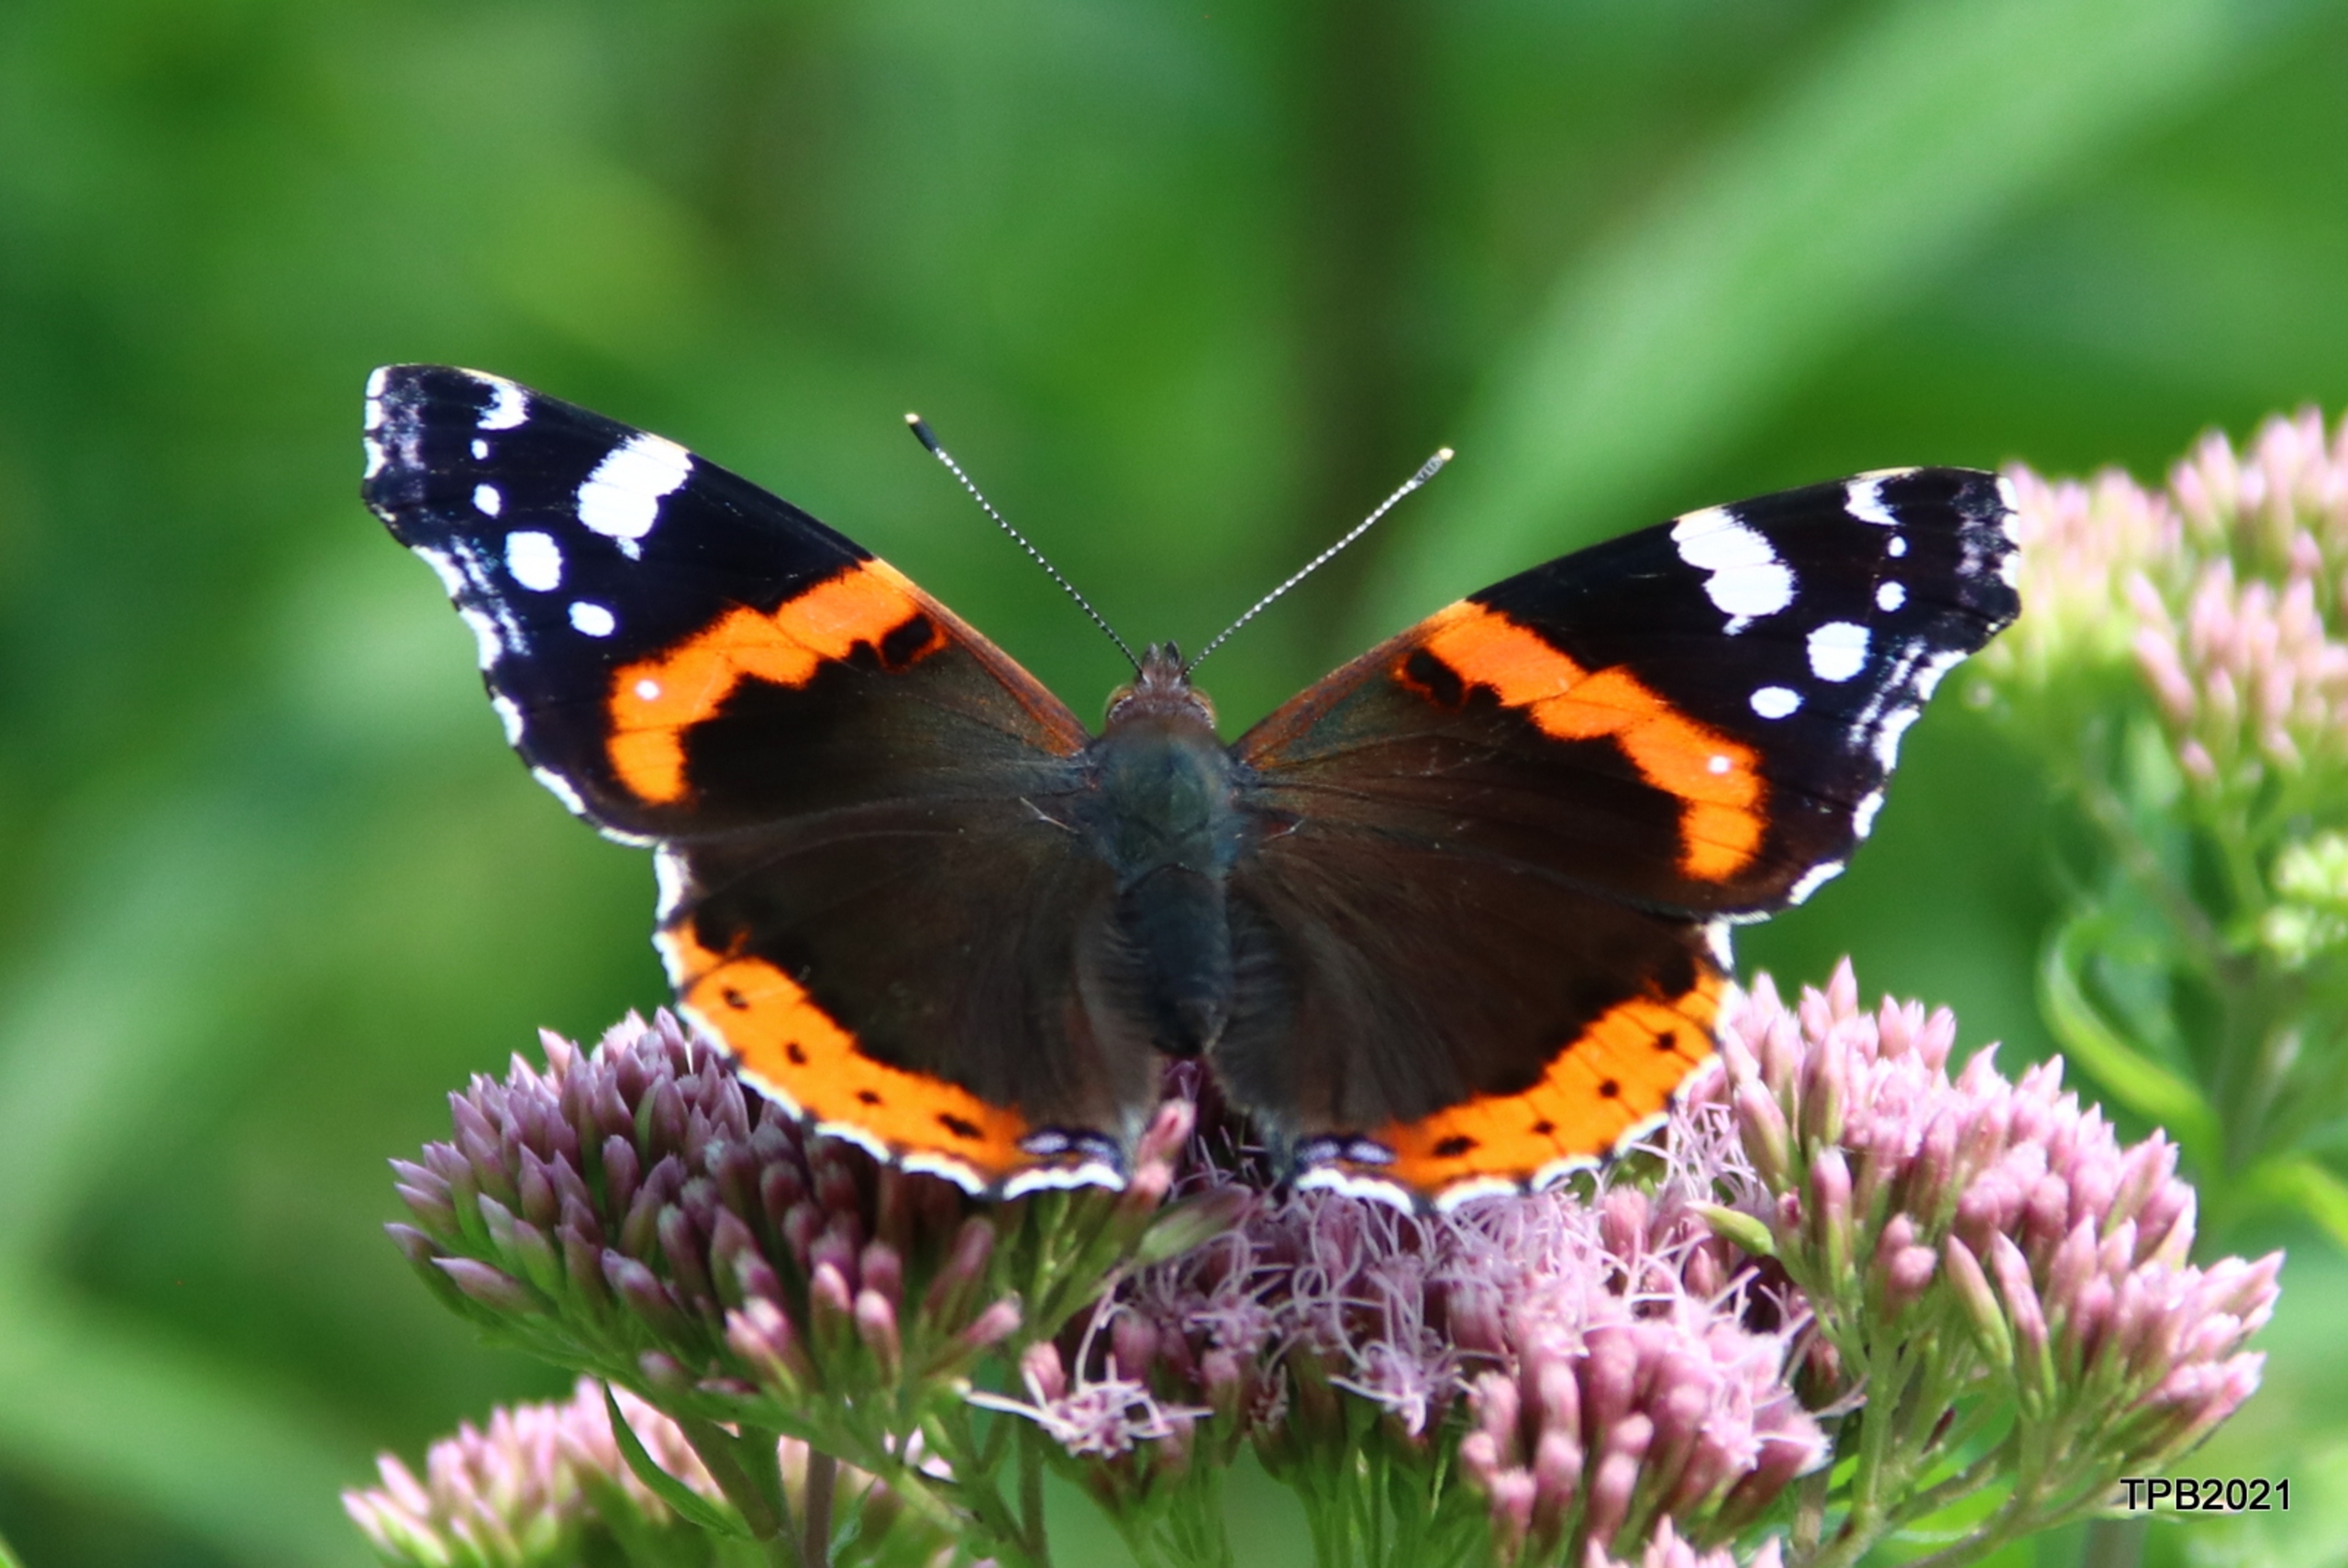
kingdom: Animalia
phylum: Arthropoda
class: Insecta
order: Lepidoptera
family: Nymphalidae
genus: Vanessa
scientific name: Vanessa atalanta
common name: Admiral
